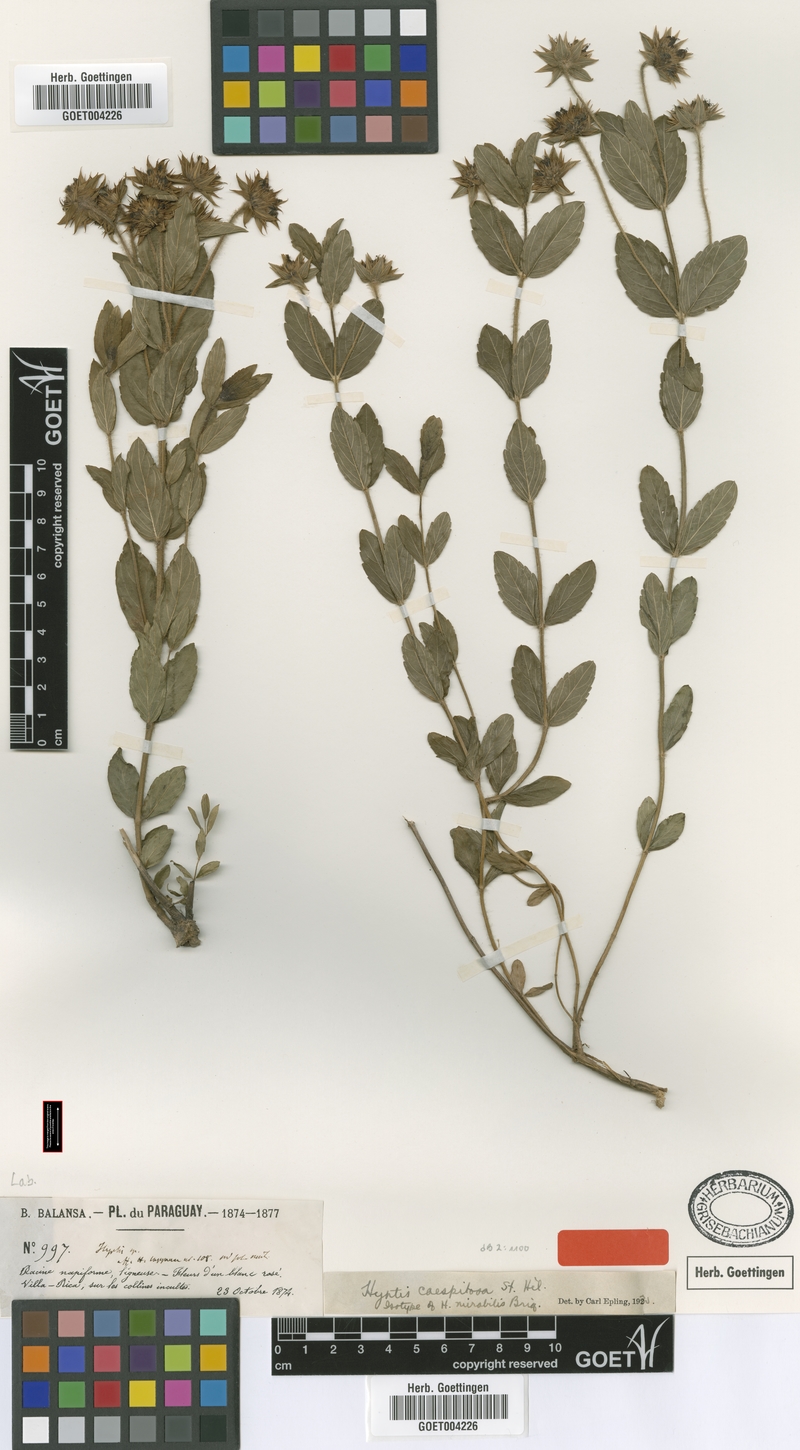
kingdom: Plantae
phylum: Tracheophyta
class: Magnoliopsida
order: Lamiales
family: Lamiaceae
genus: Hyptis
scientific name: Hyptis caespitosa
